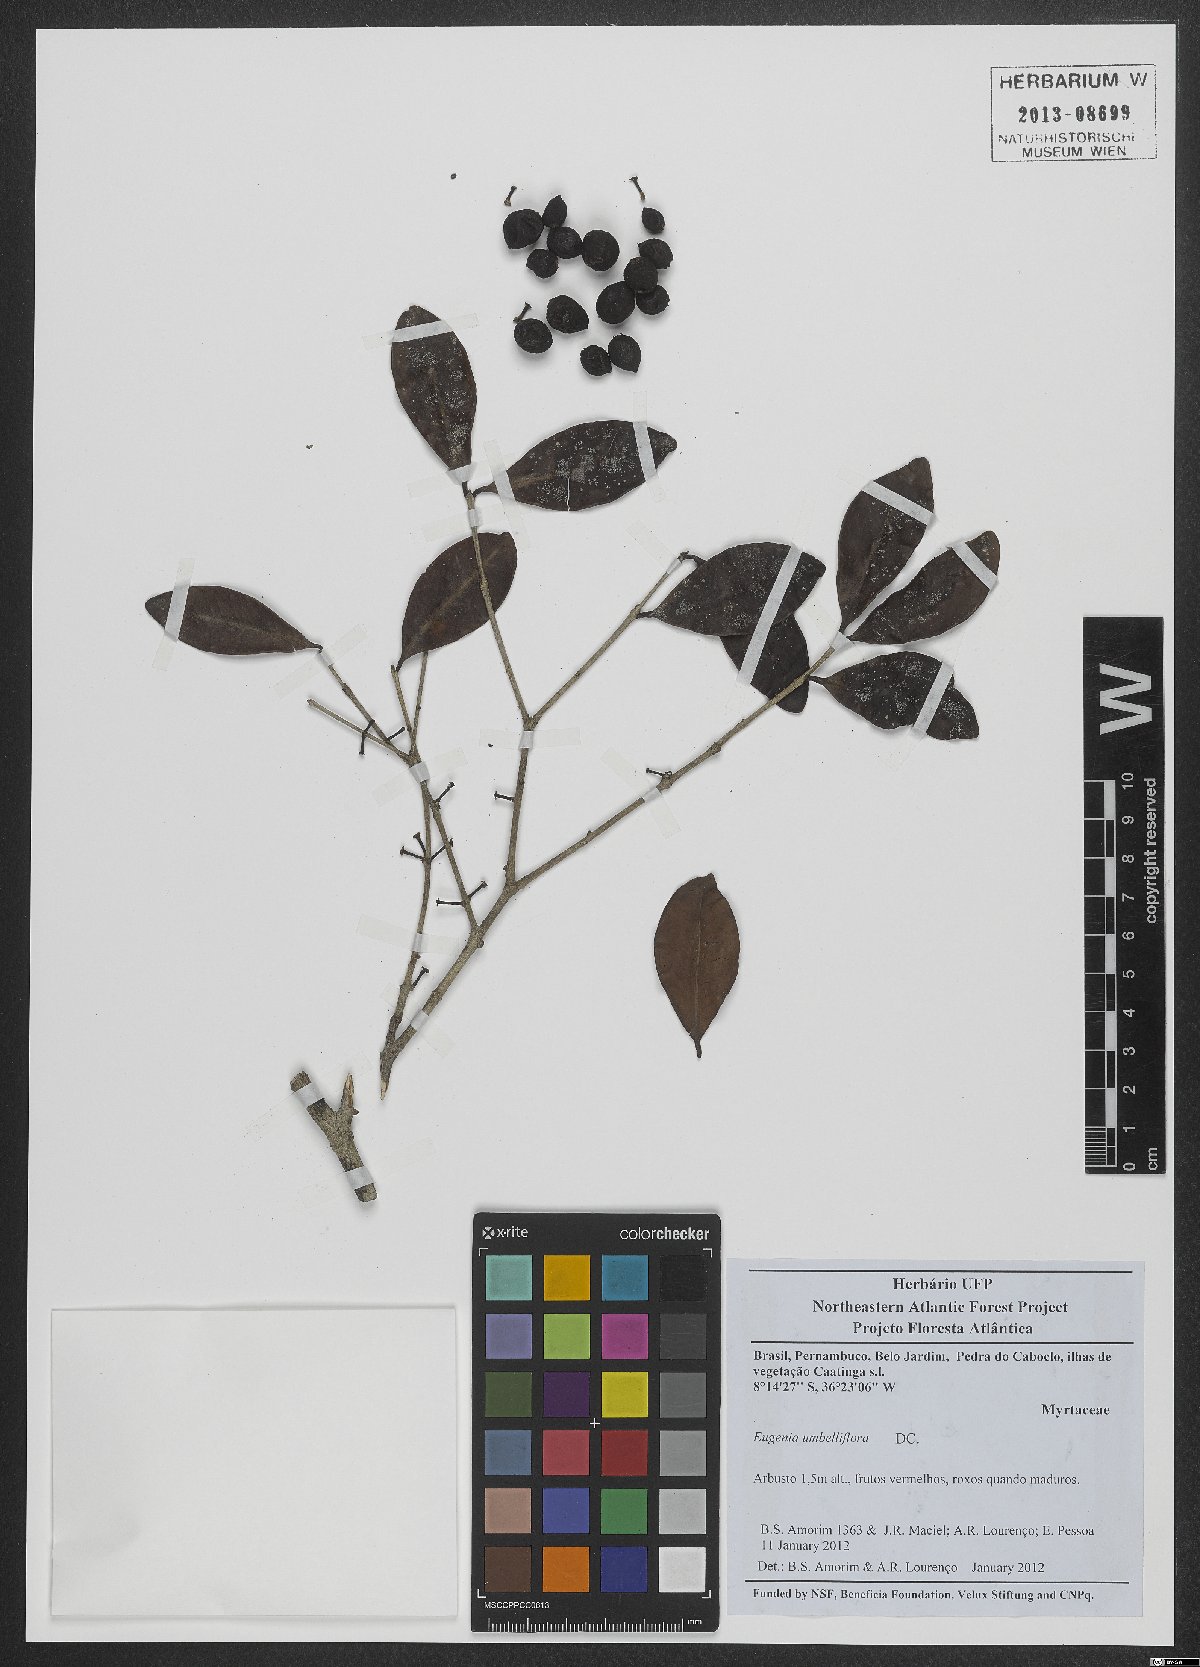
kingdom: Plantae
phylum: Tracheophyta
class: Magnoliopsida
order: Myrtales
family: Myrtaceae
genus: Eugenia
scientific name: Eugenia umbelliflora
